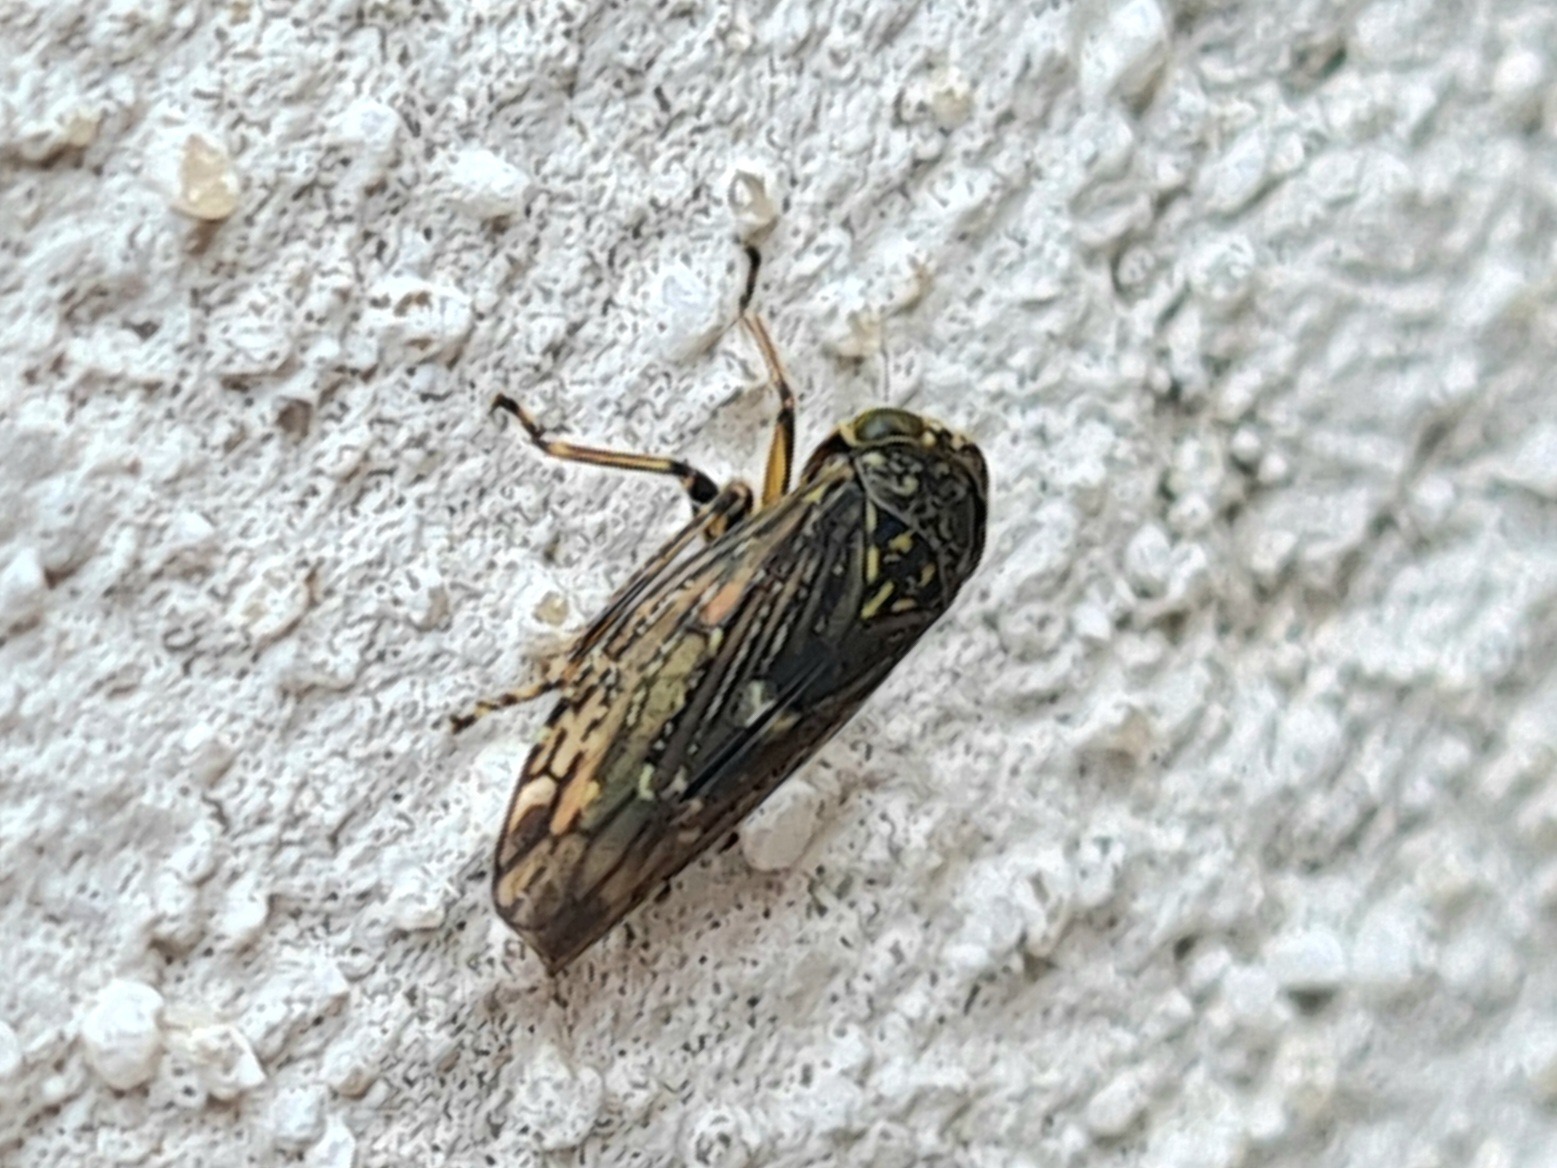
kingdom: Animalia
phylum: Arthropoda
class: Insecta
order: Hemiptera
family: Cicadellidae
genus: Acericerus
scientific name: Acericerus heydenii
